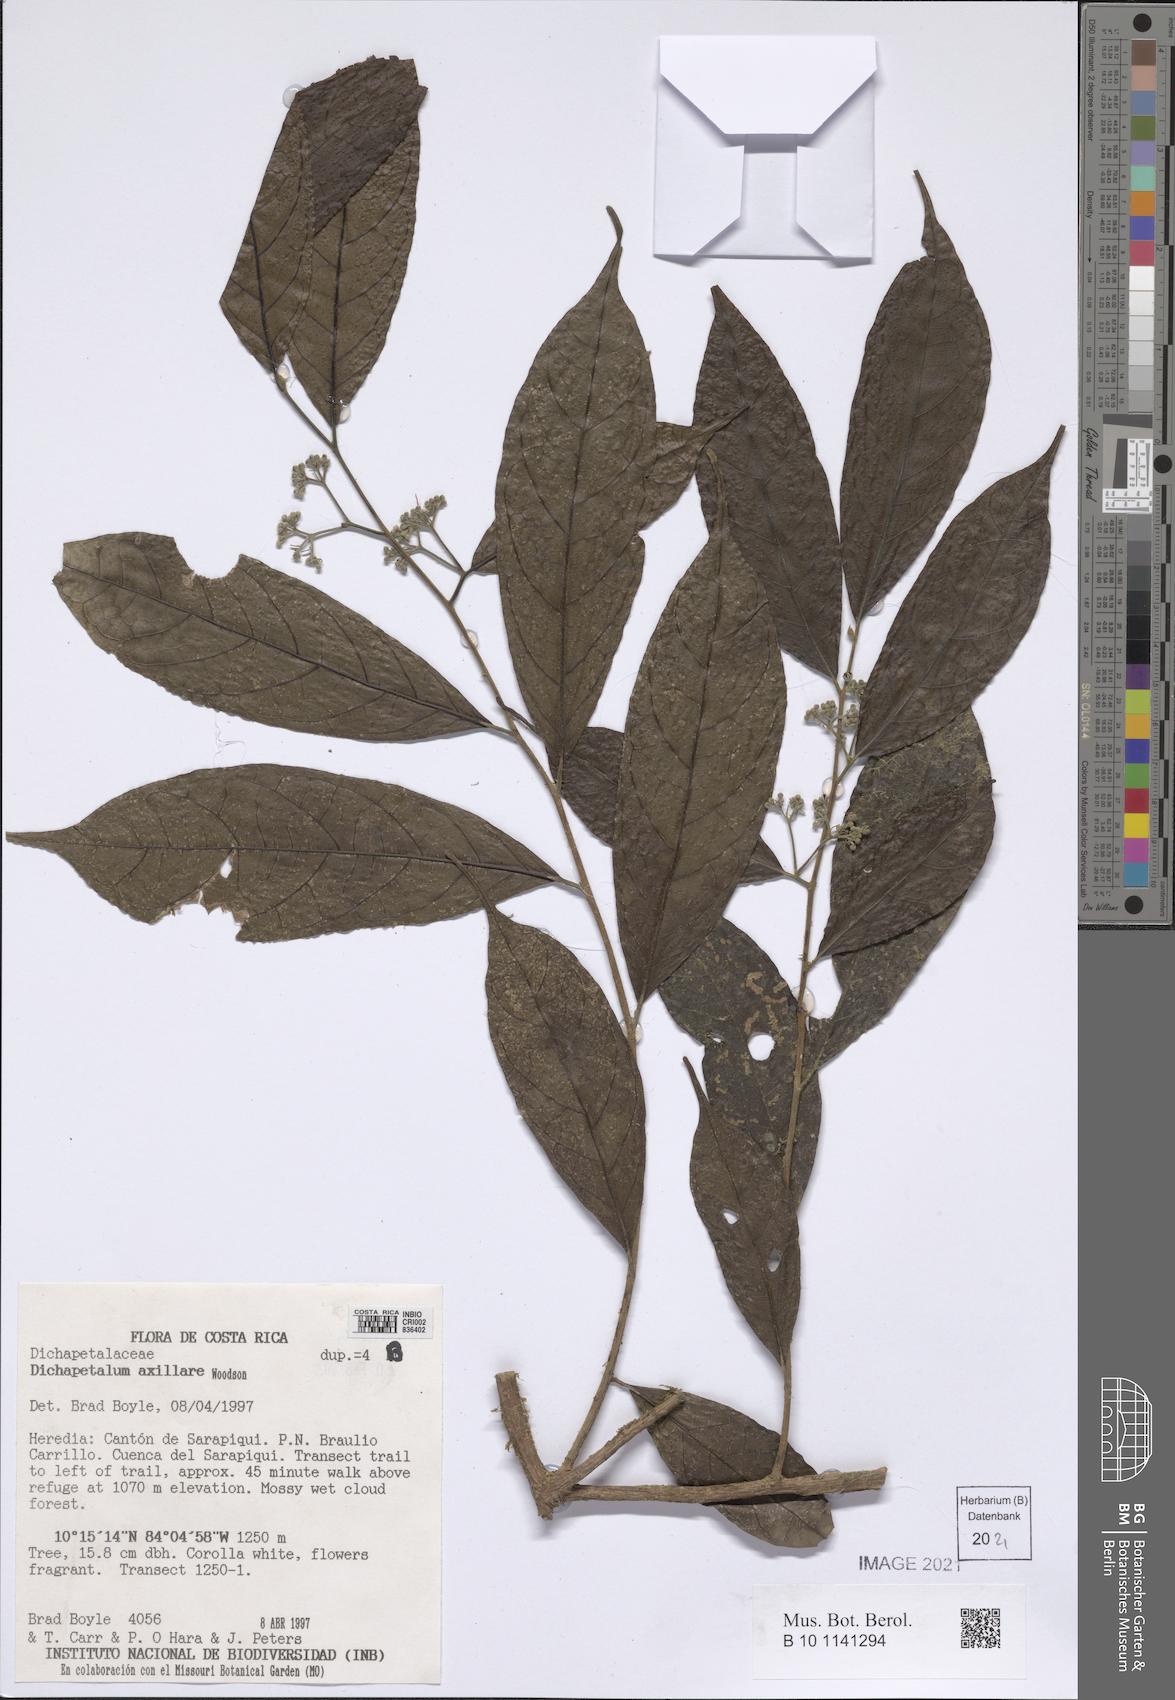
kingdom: Plantae
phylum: Tracheophyta
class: Magnoliopsida
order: Malpighiales
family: Dichapetalaceae
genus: Dichapetalum
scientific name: Dichapetalum axillare
